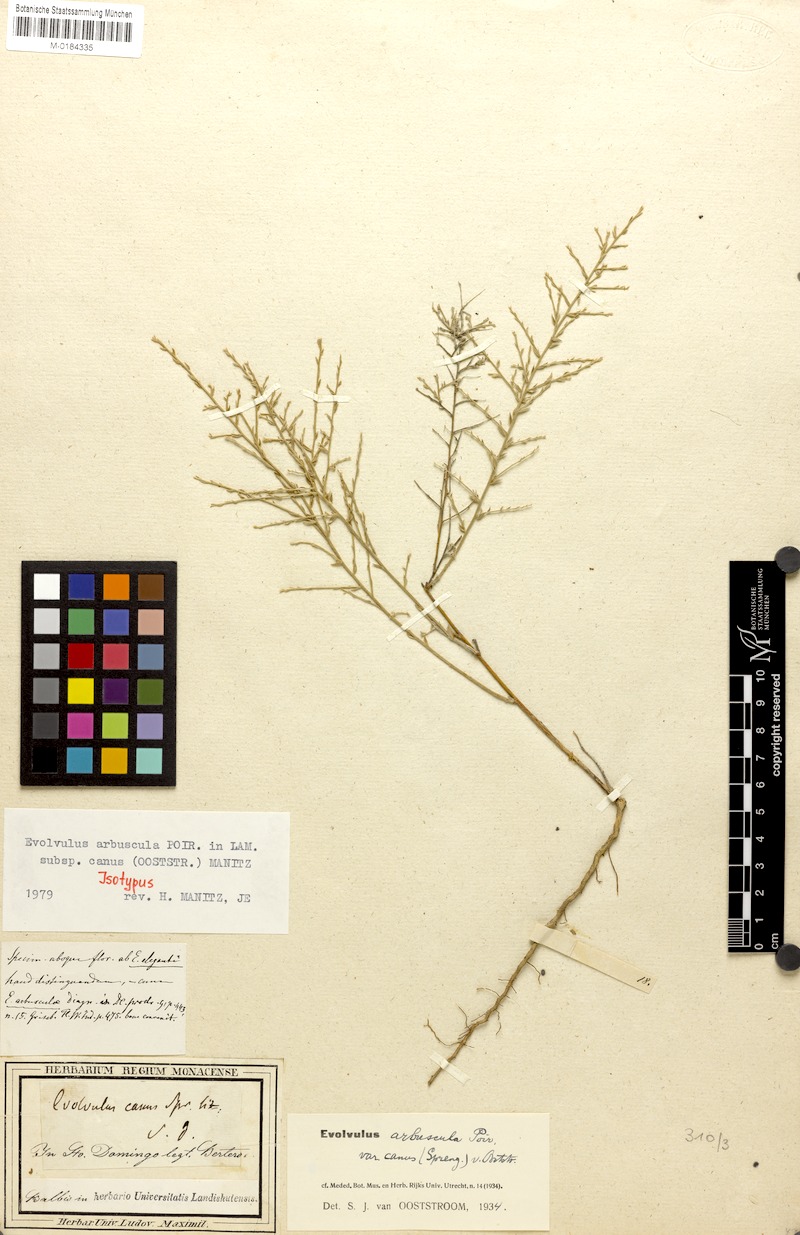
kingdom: Plantae
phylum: Tracheophyta
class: Magnoliopsida
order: Solanales
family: Convolvulaceae
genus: Evolvulus
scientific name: Evolvulus arbuscula
